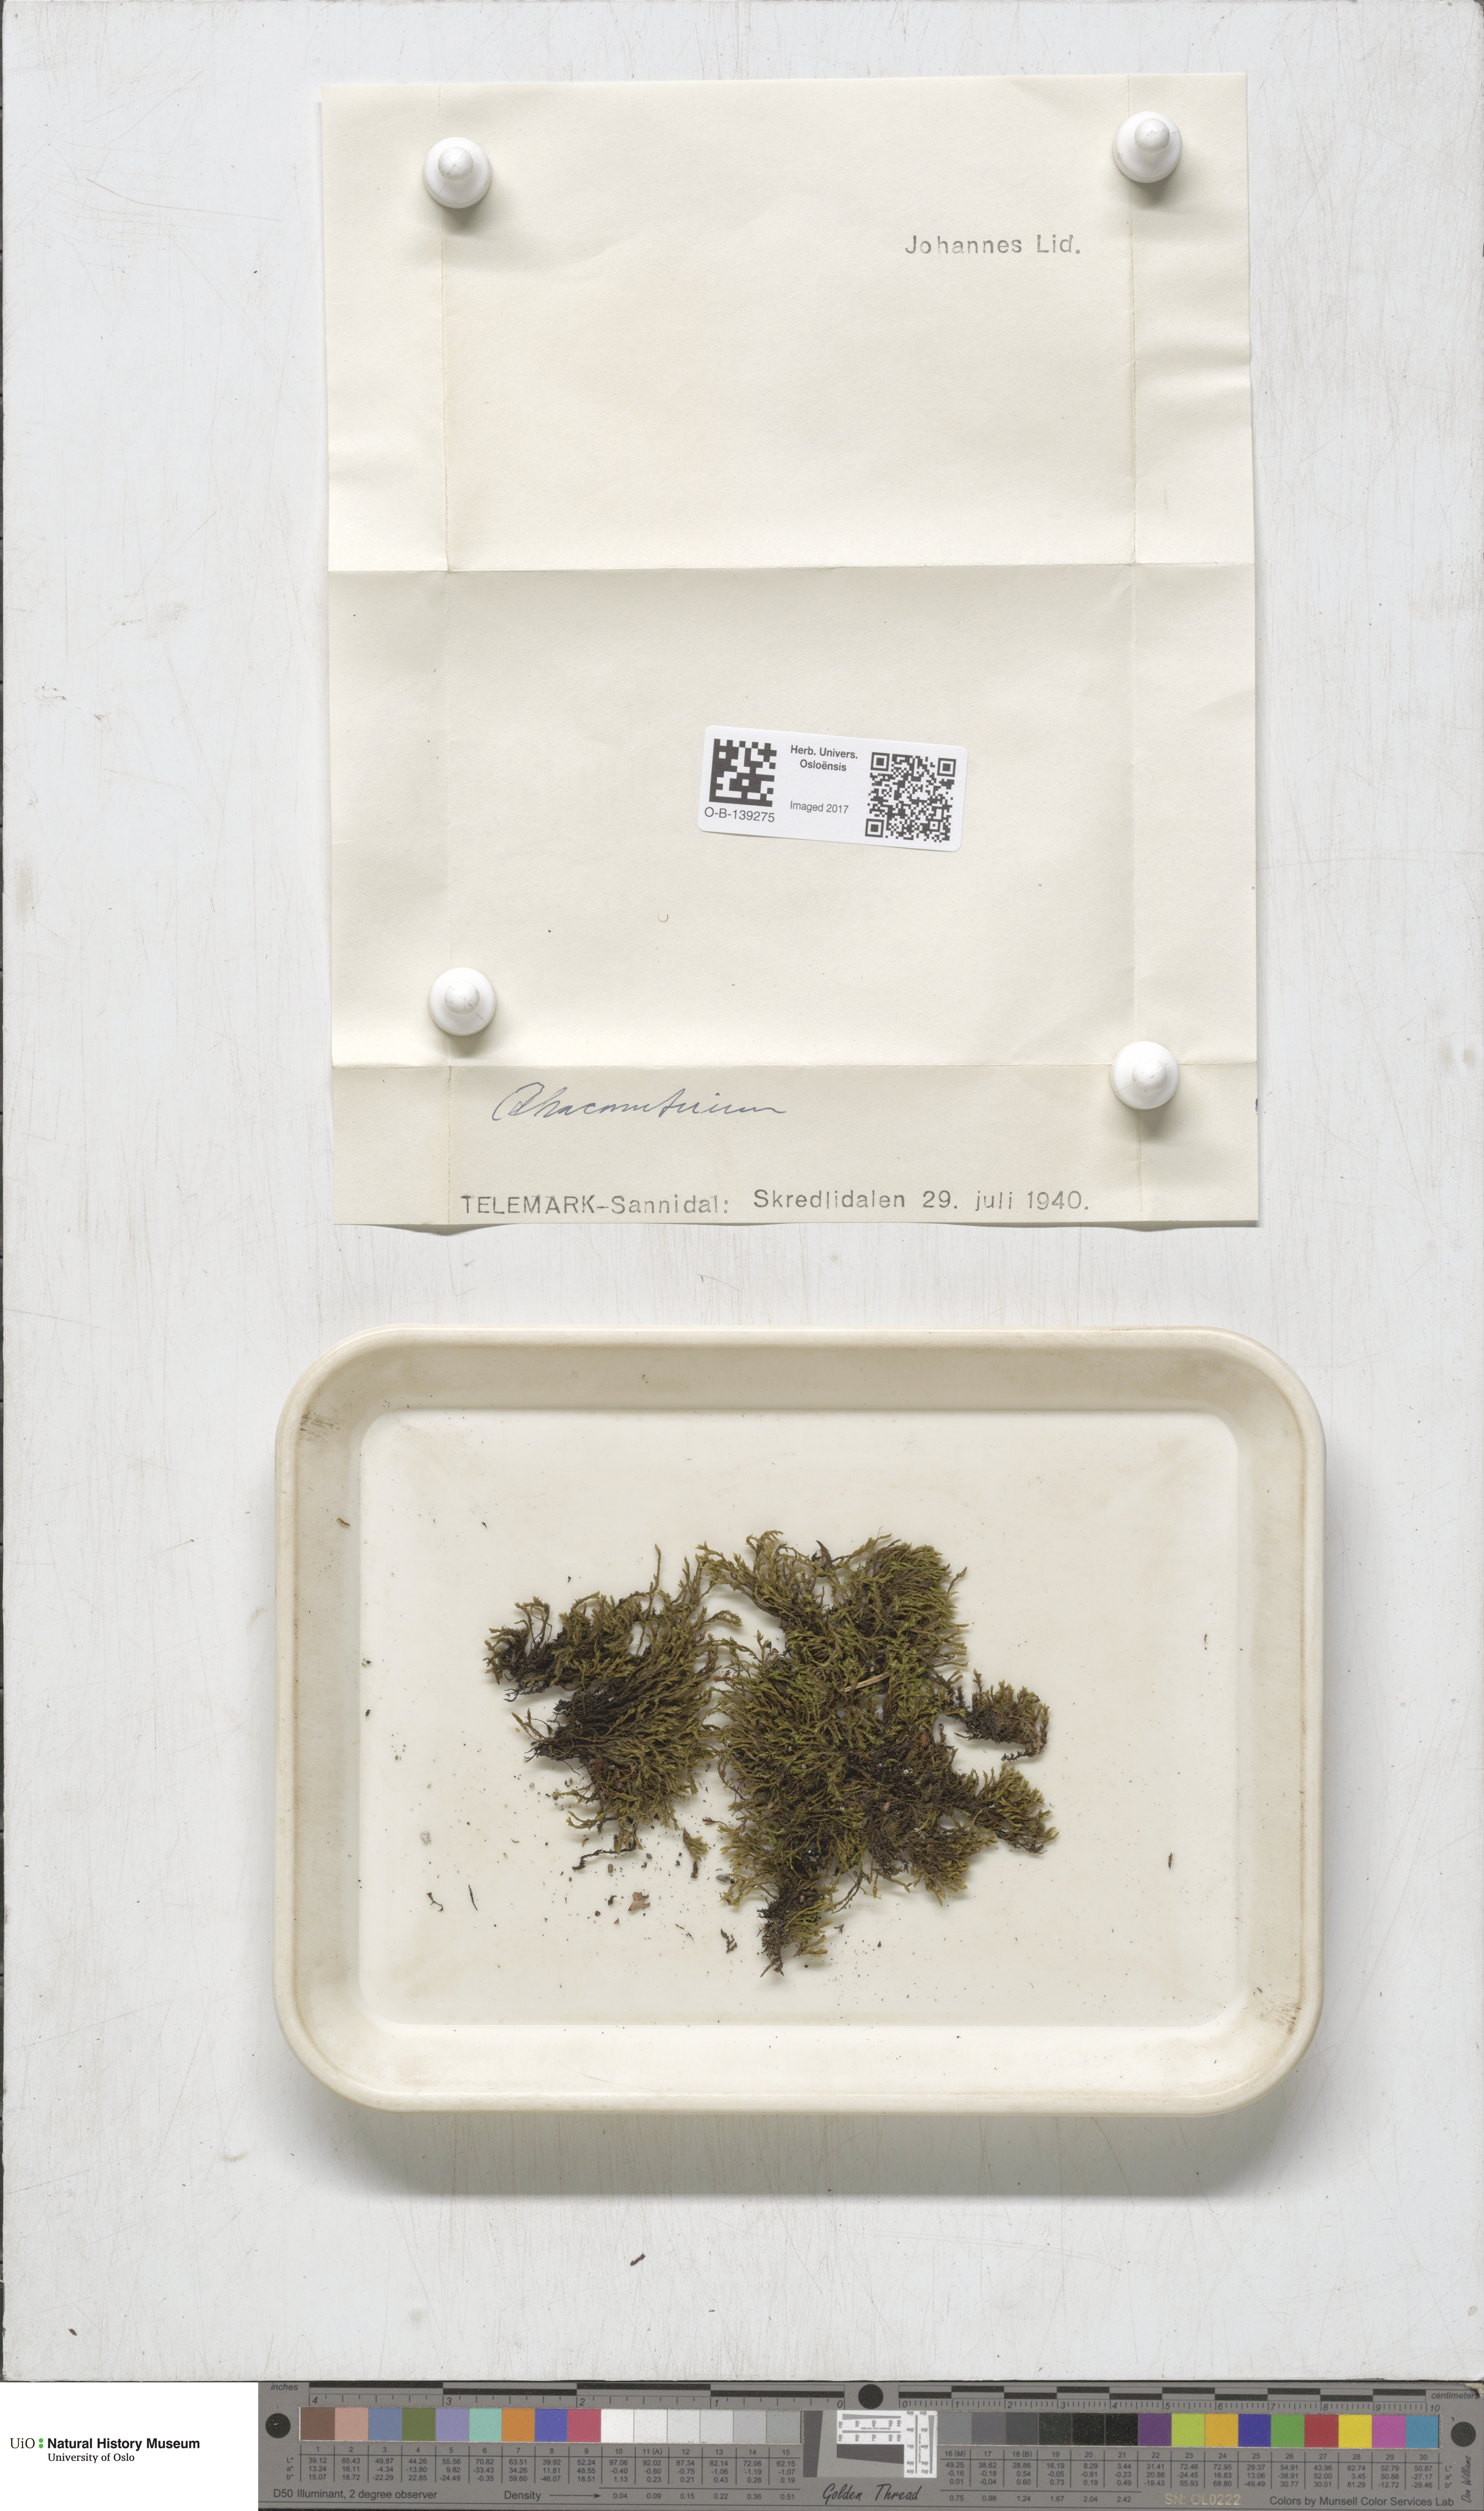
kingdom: Plantae
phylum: Bryophyta
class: Bryopsida
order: Grimmiales
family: Grimmiaceae
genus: Racomitrium
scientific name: Racomitrium
